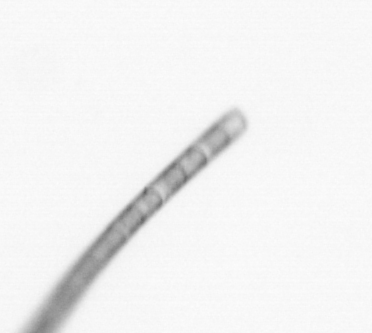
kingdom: Chromista
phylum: Ochrophyta
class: Bacillariophyceae
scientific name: Bacillariophyceae
